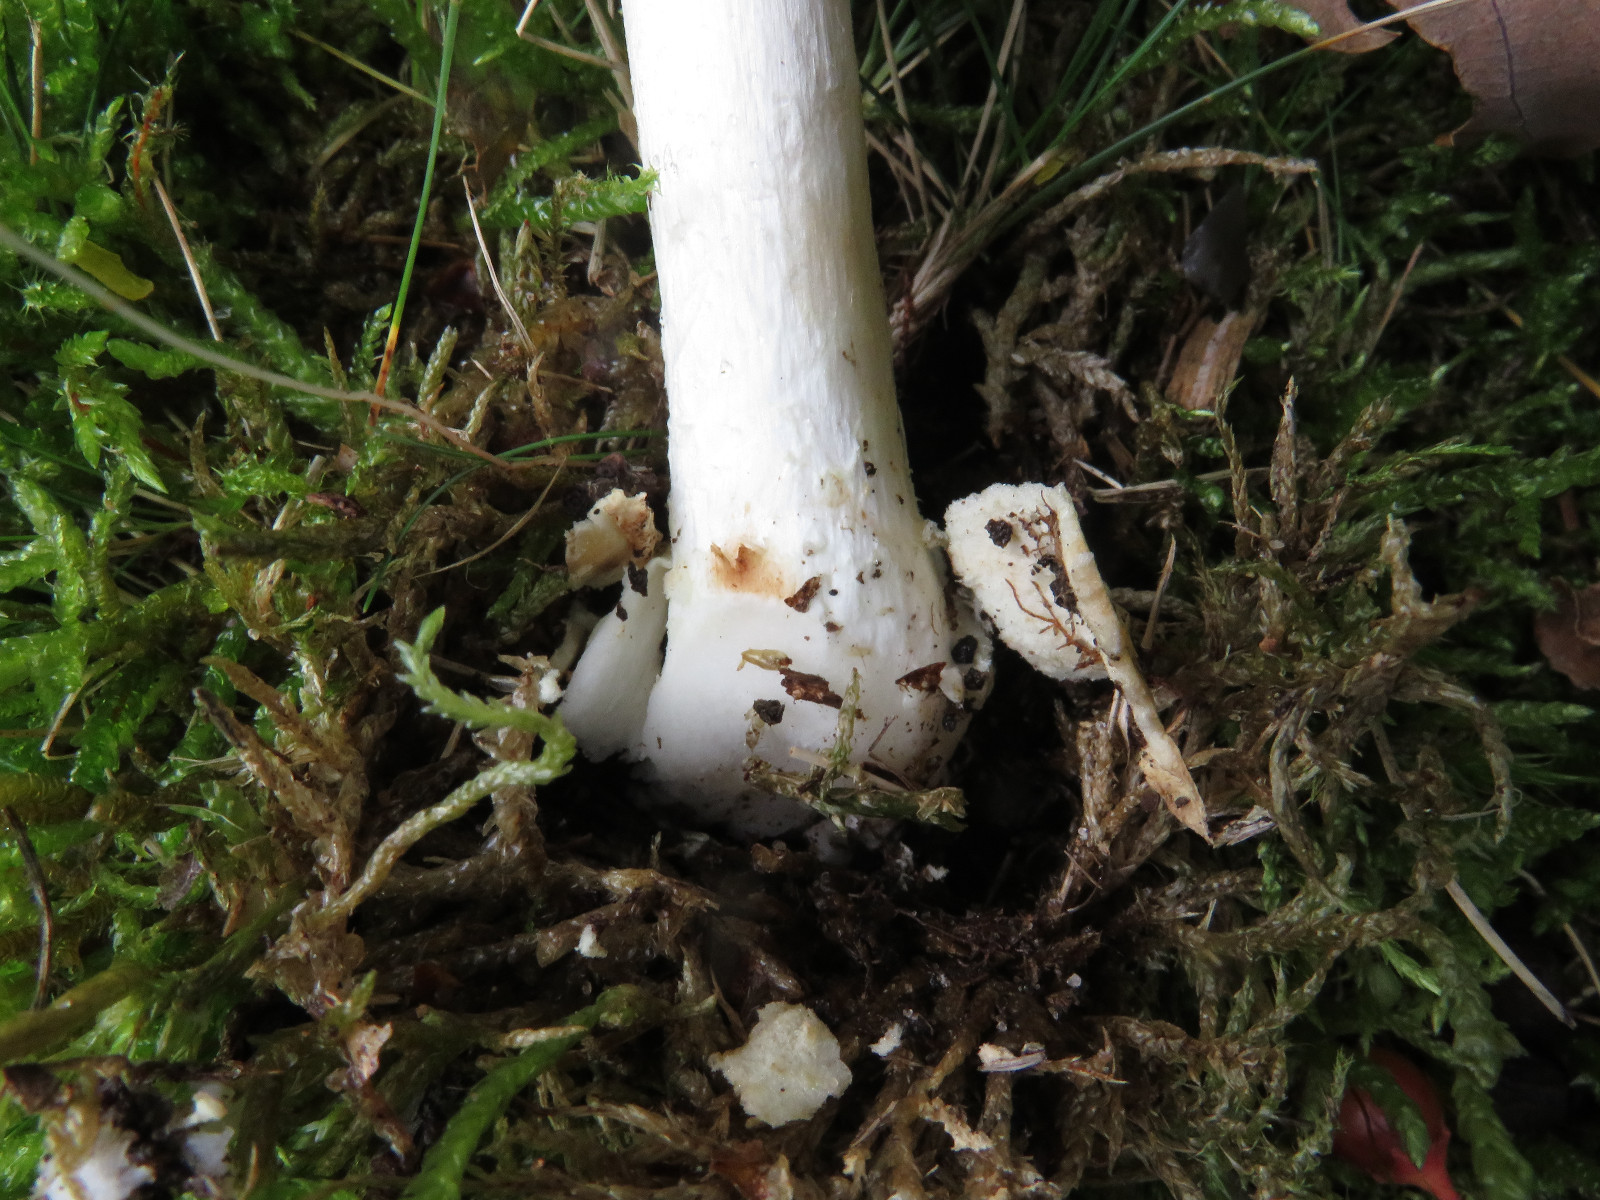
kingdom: Fungi
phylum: Basidiomycota
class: Agaricomycetes
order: Agaricales
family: Amanitaceae
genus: Amanita
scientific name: Amanita
